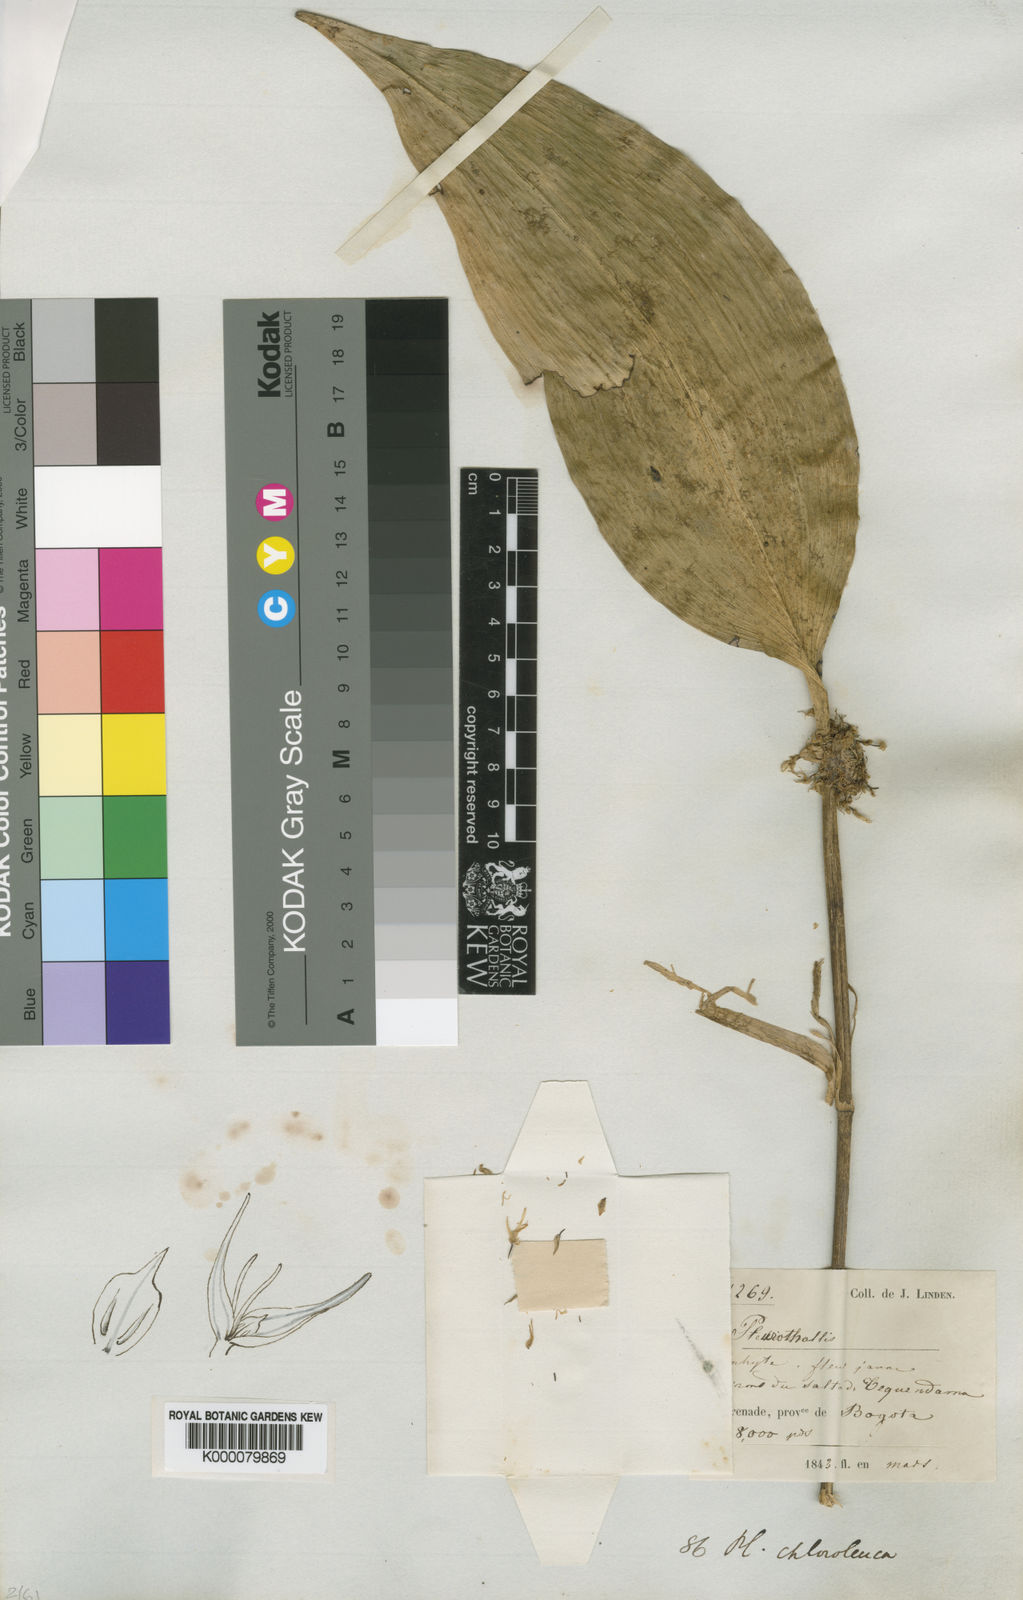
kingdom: Plantae
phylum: Tracheophyta
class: Liliopsida
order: Asparagales
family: Orchidaceae
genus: Pleurothallis
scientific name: Pleurothallis chloroleuca
